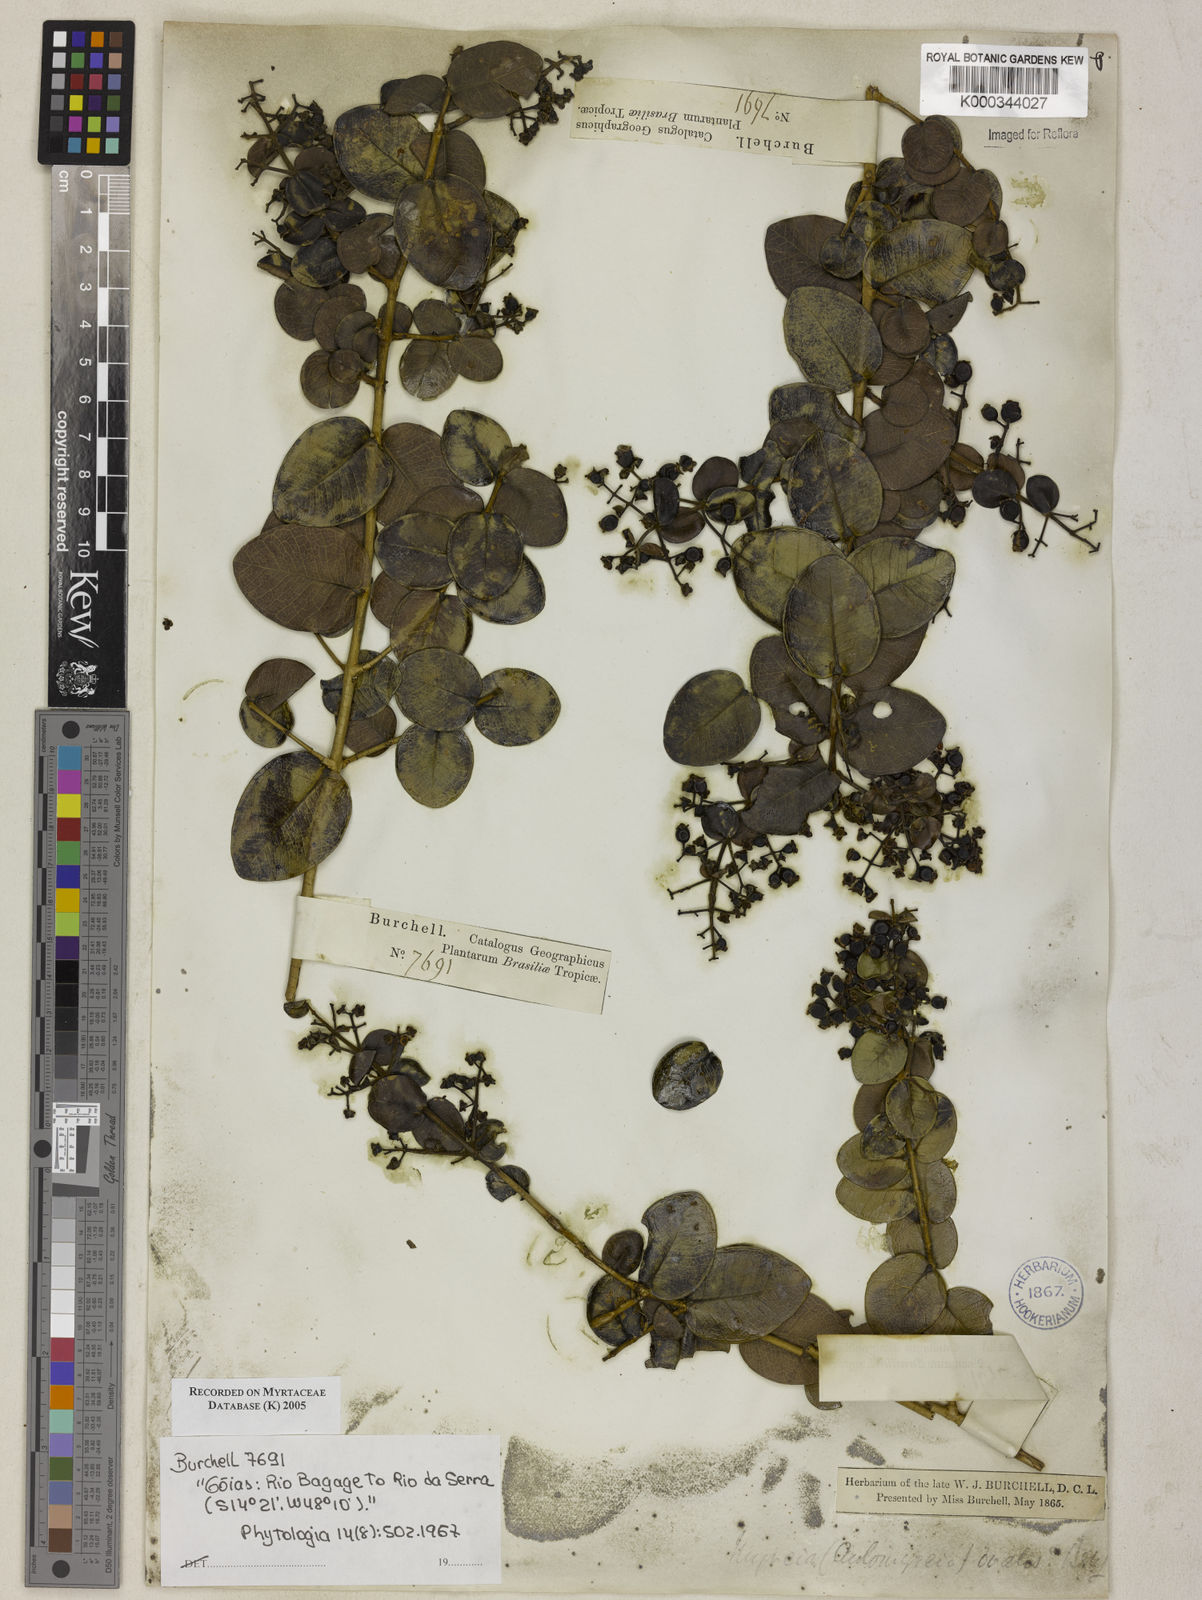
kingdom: Plantae
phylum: Tracheophyta
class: Magnoliopsida
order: Myrtales
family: Myrtaceae
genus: Myrcia
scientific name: Myrcia ovalis
